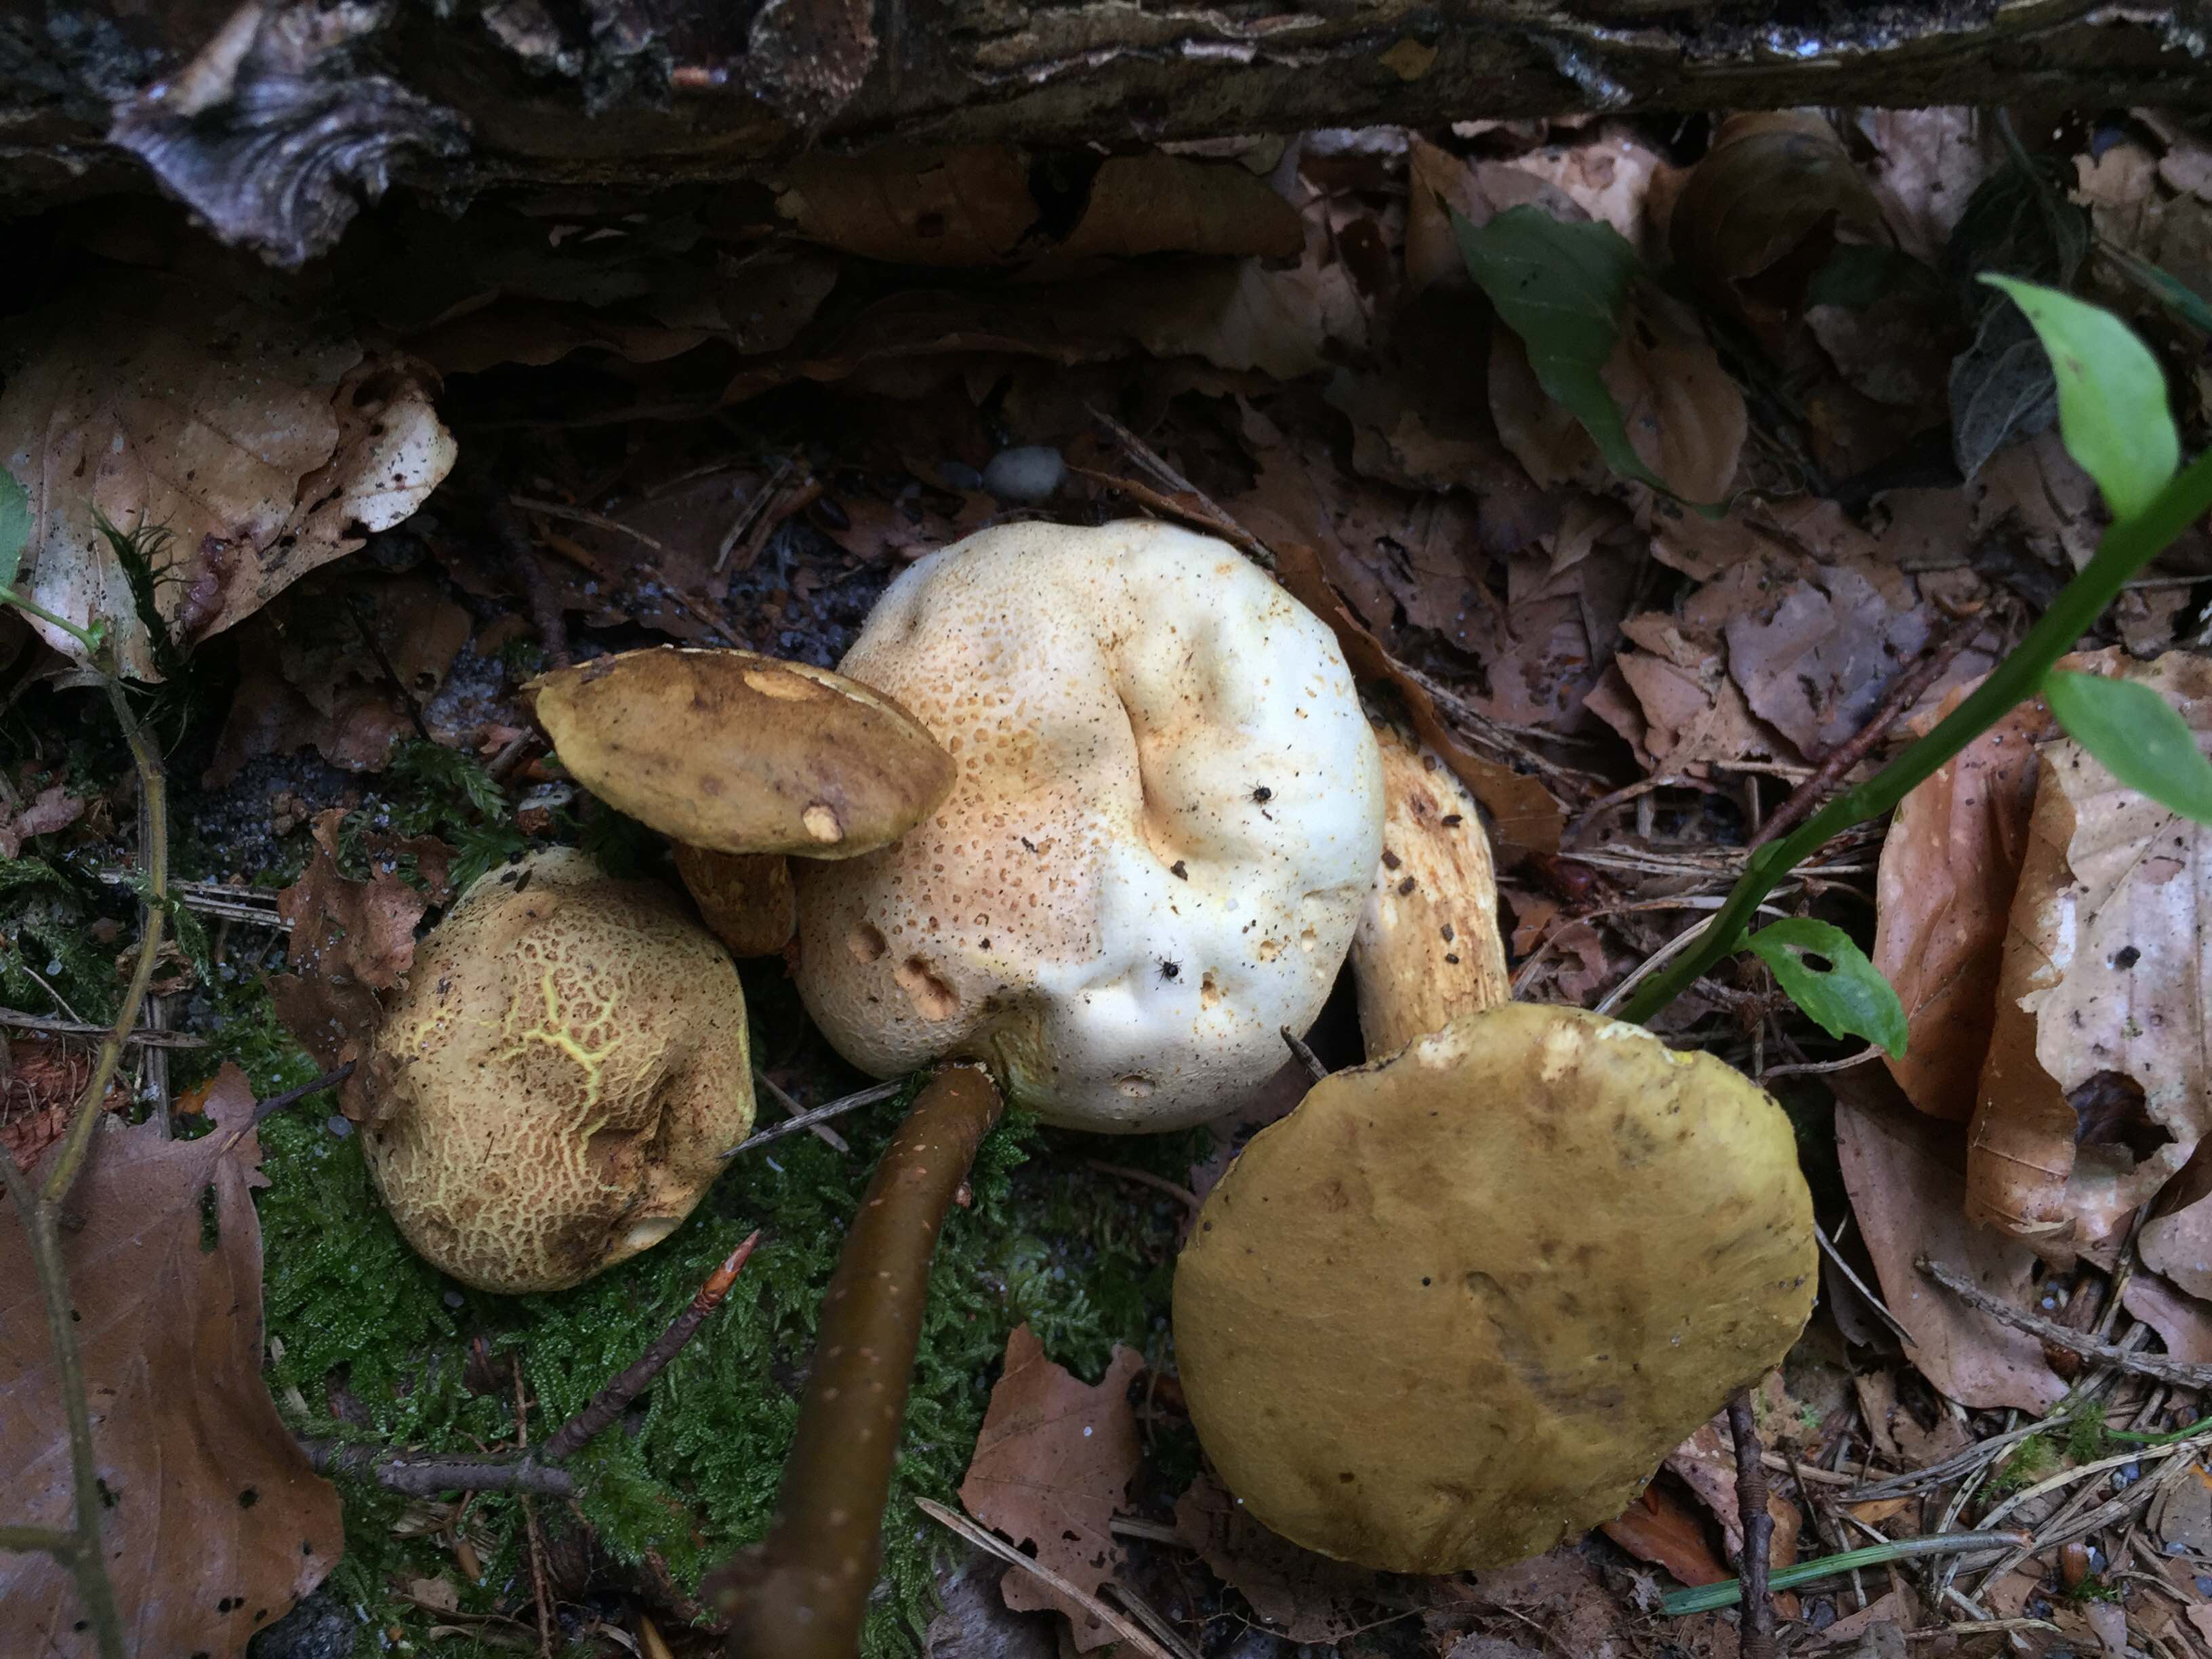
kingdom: Fungi
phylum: Basidiomycota
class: Agaricomycetes
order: Boletales
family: Boletaceae
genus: Pseudoboletus
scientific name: Pseudoboletus parasiticus
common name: snyltende rørhat
